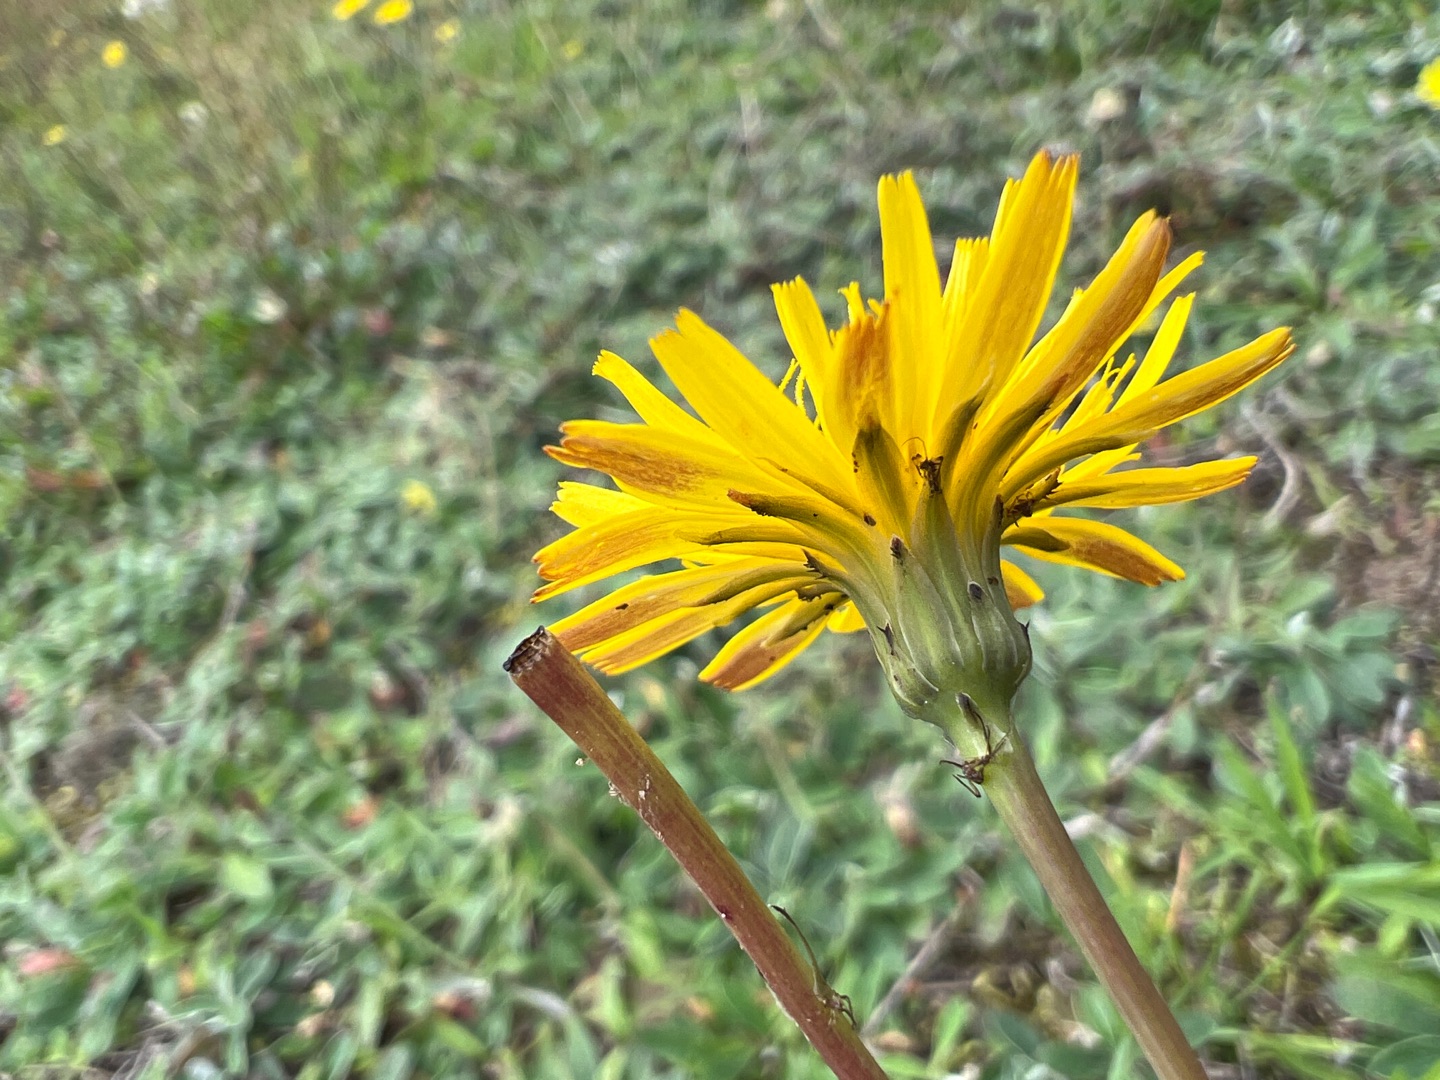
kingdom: Plantae
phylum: Tracheophyta
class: Magnoliopsida
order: Asterales
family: Asteraceae
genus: Hypochaeris
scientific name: Hypochaeris radicata
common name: Almindelig kongepen
